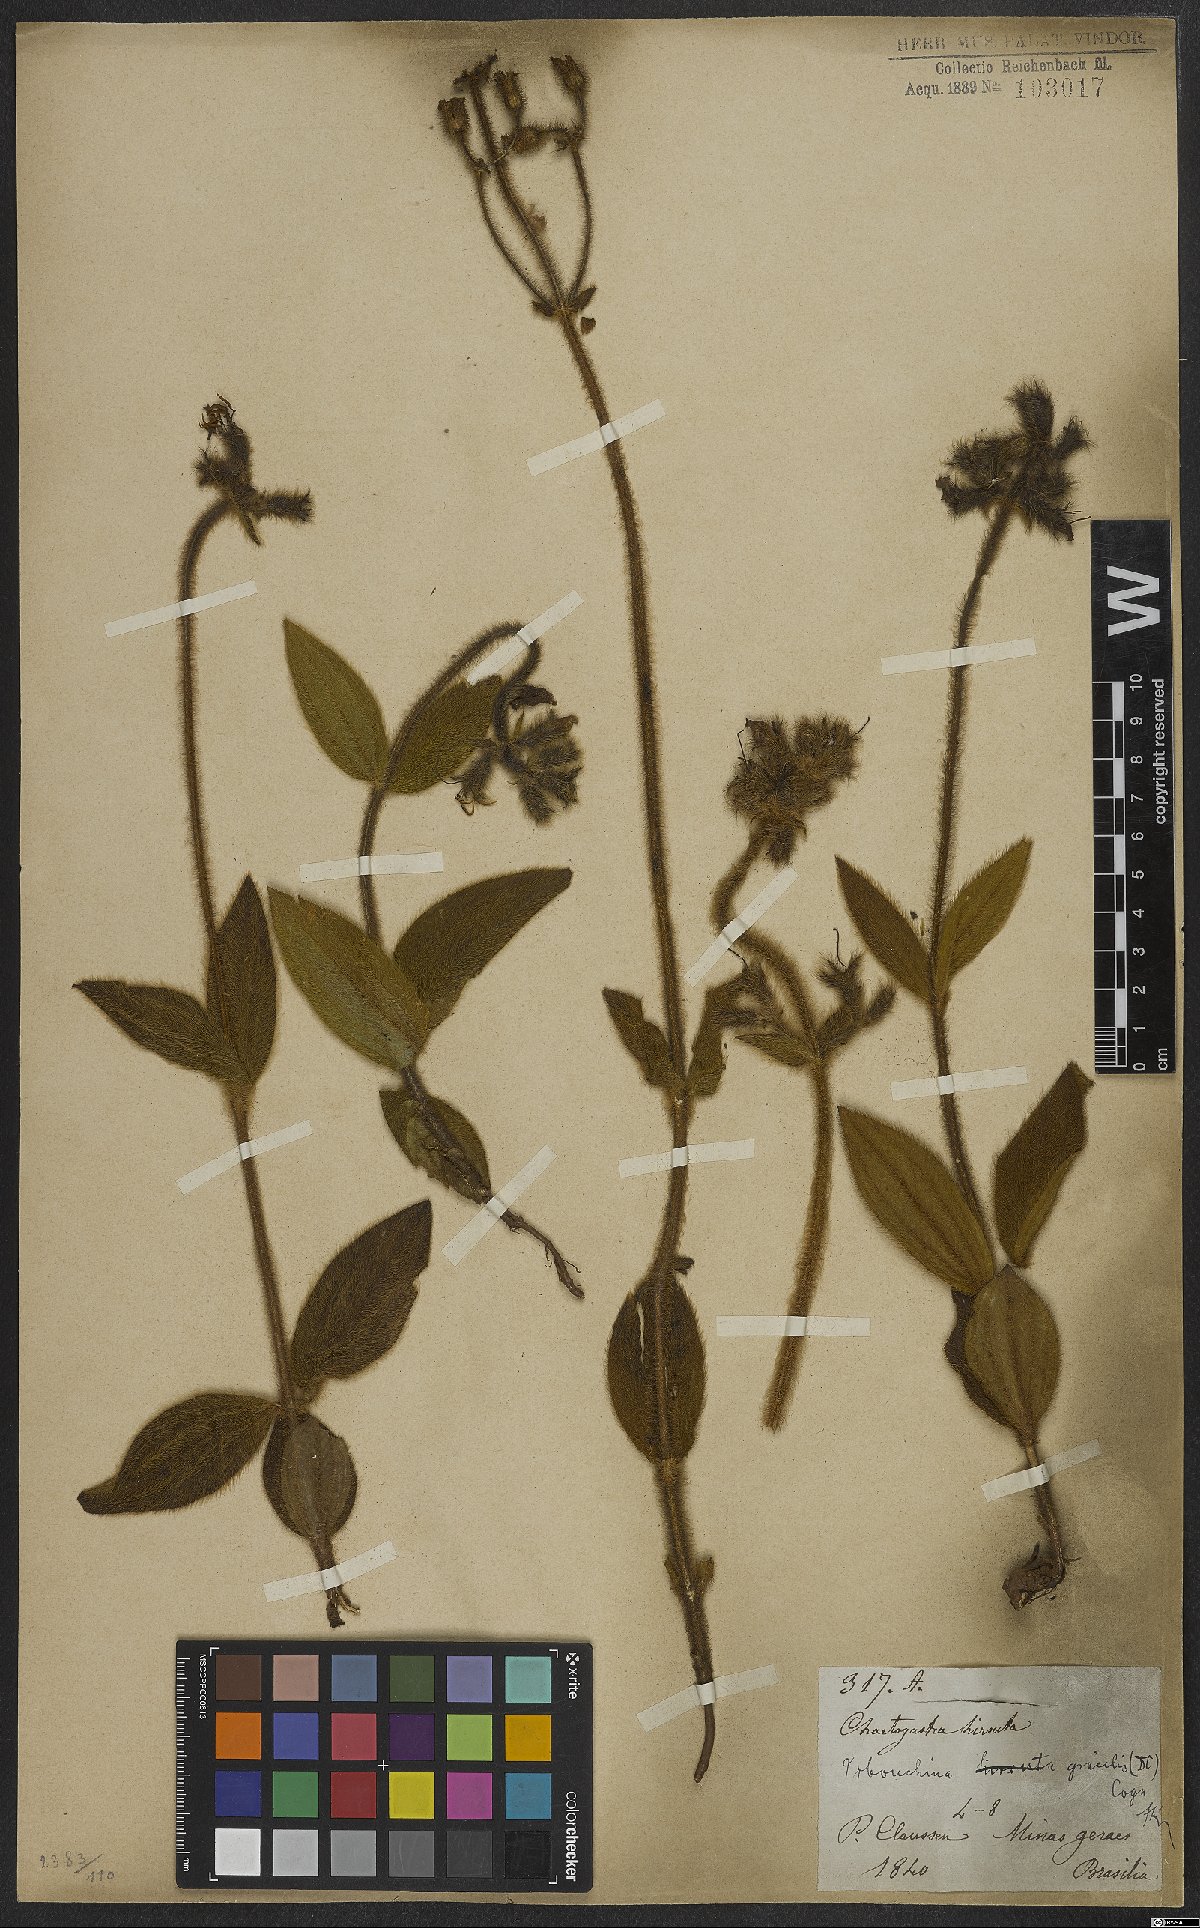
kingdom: Plantae
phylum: Tracheophyta
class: Magnoliopsida
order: Myrtales
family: Melastomataceae
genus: Chaetogastra
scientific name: Chaetogastra gracilis
